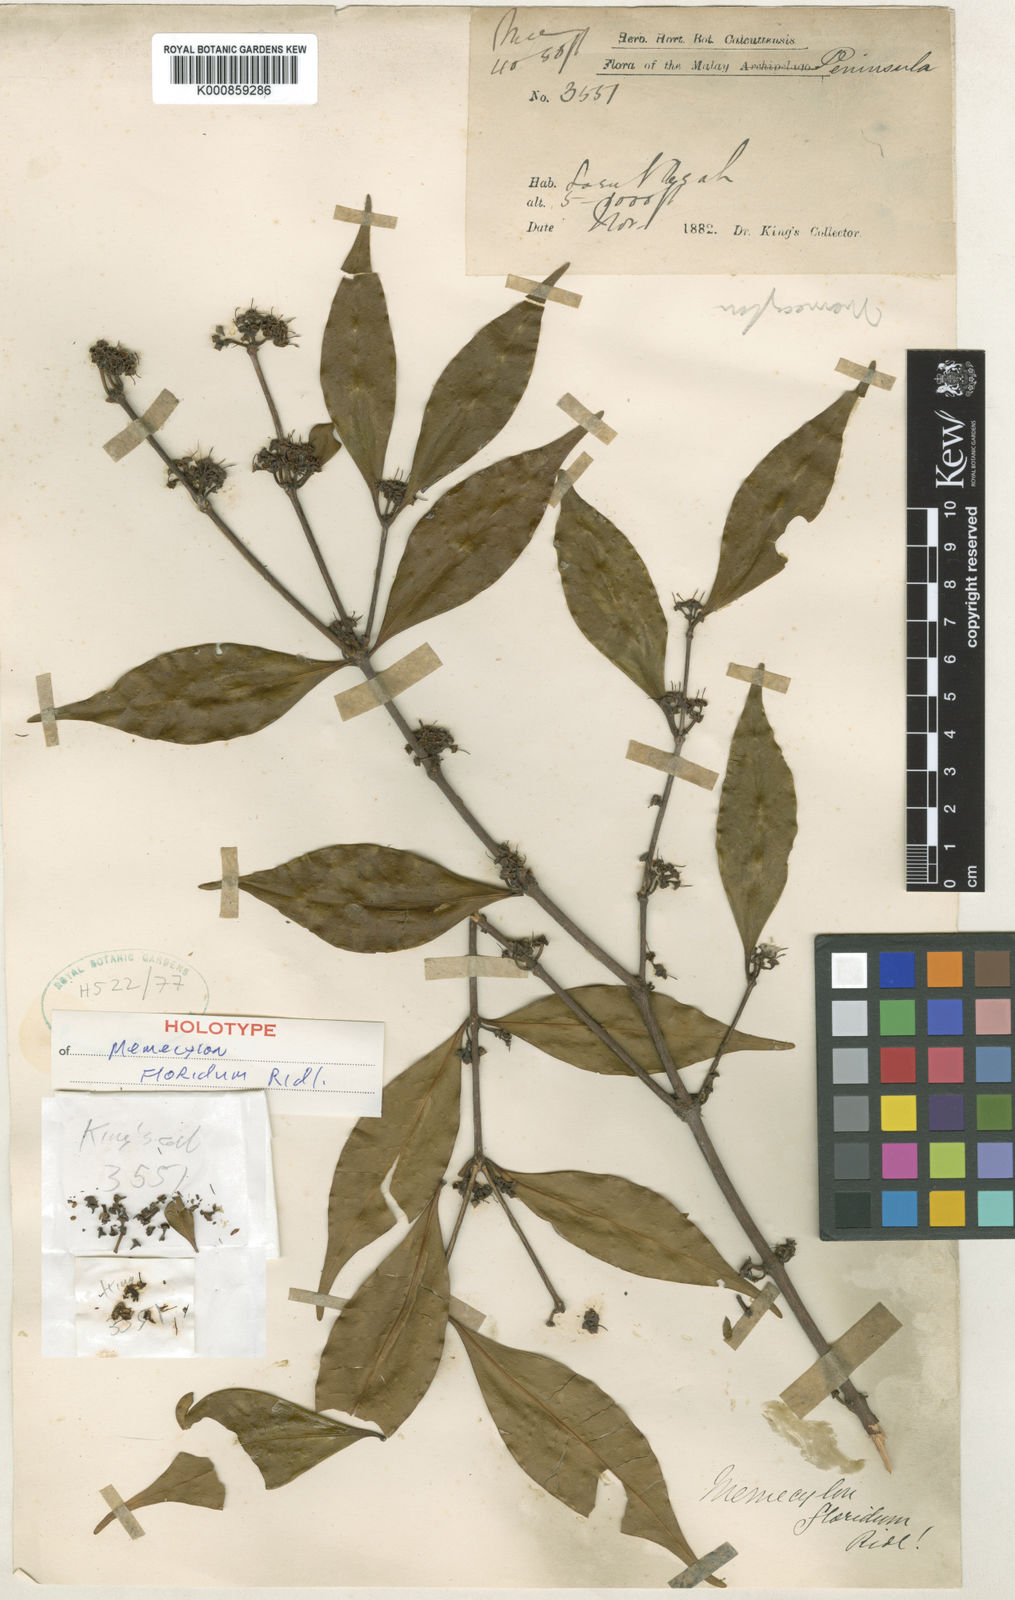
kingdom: Plantae
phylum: Tracheophyta
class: Magnoliopsida
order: Myrtales
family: Melastomataceae
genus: Memecylon
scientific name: Memecylon floridum
